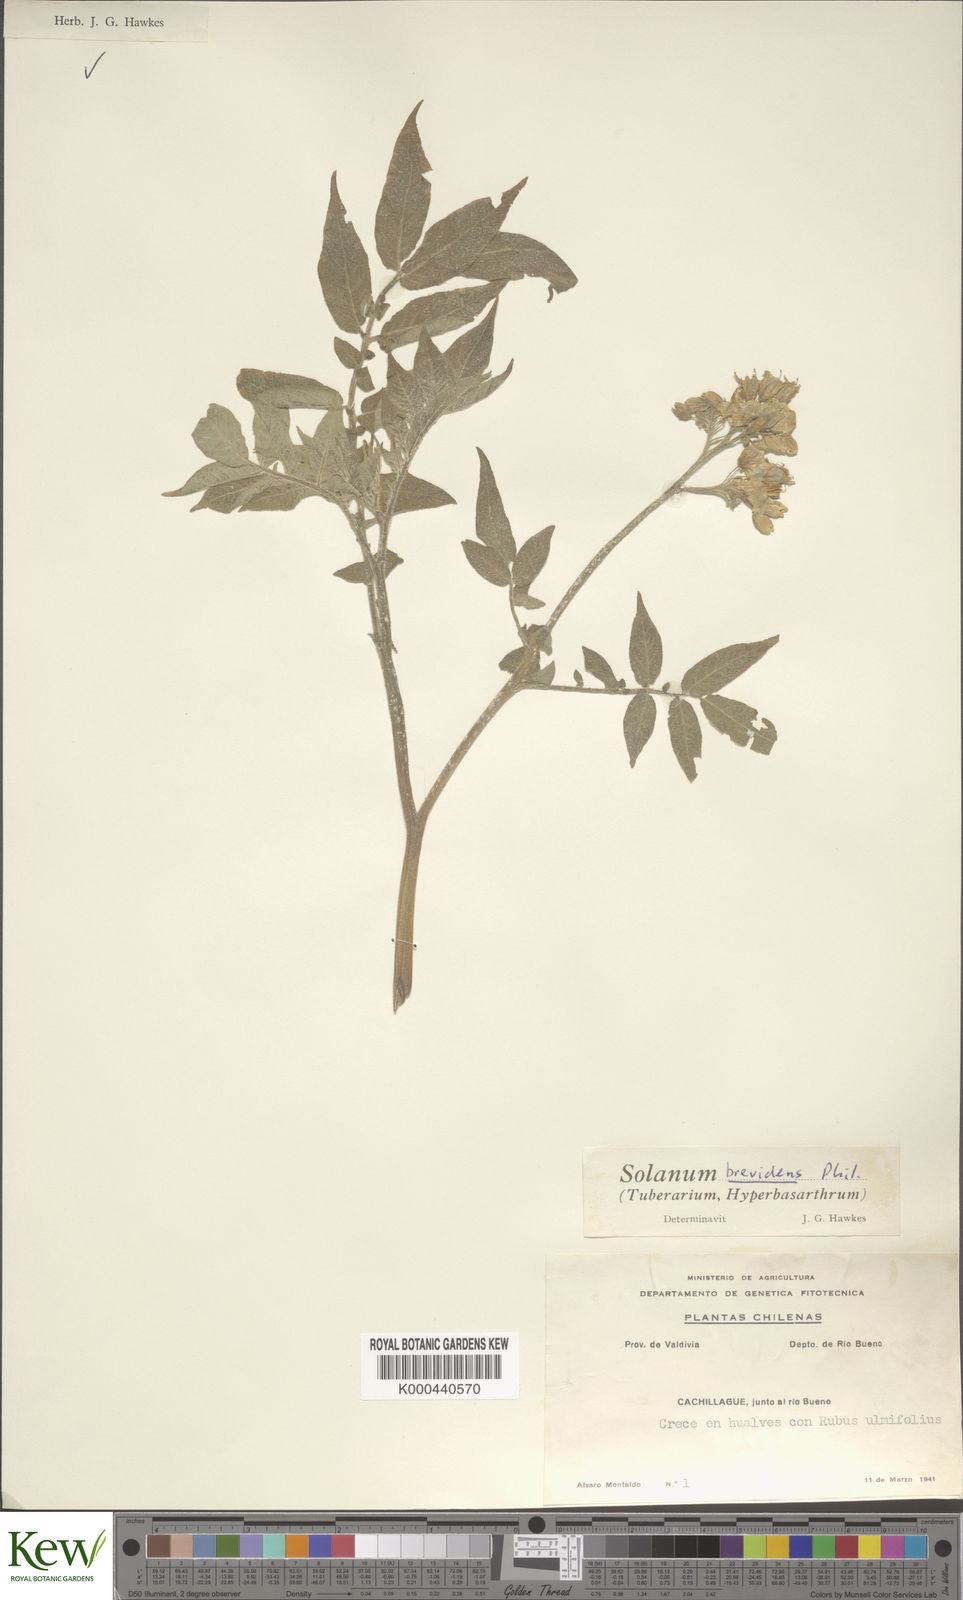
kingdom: Plantae
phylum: Tracheophyta
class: Magnoliopsida
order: Solanales
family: Solanaceae
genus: Solanum
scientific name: Solanum palustre
